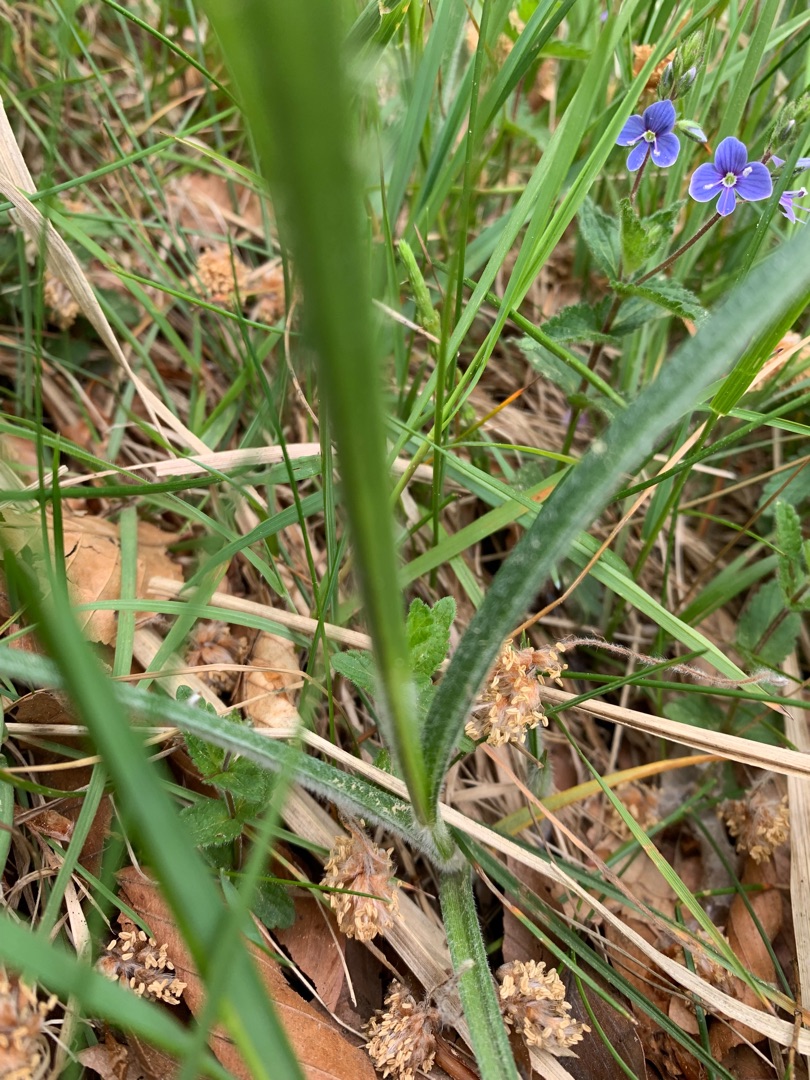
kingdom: Plantae
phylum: Tracheophyta
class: Liliopsida
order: Poales
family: Cyperaceae
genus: Carex
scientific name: Carex hirta
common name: Håret star
